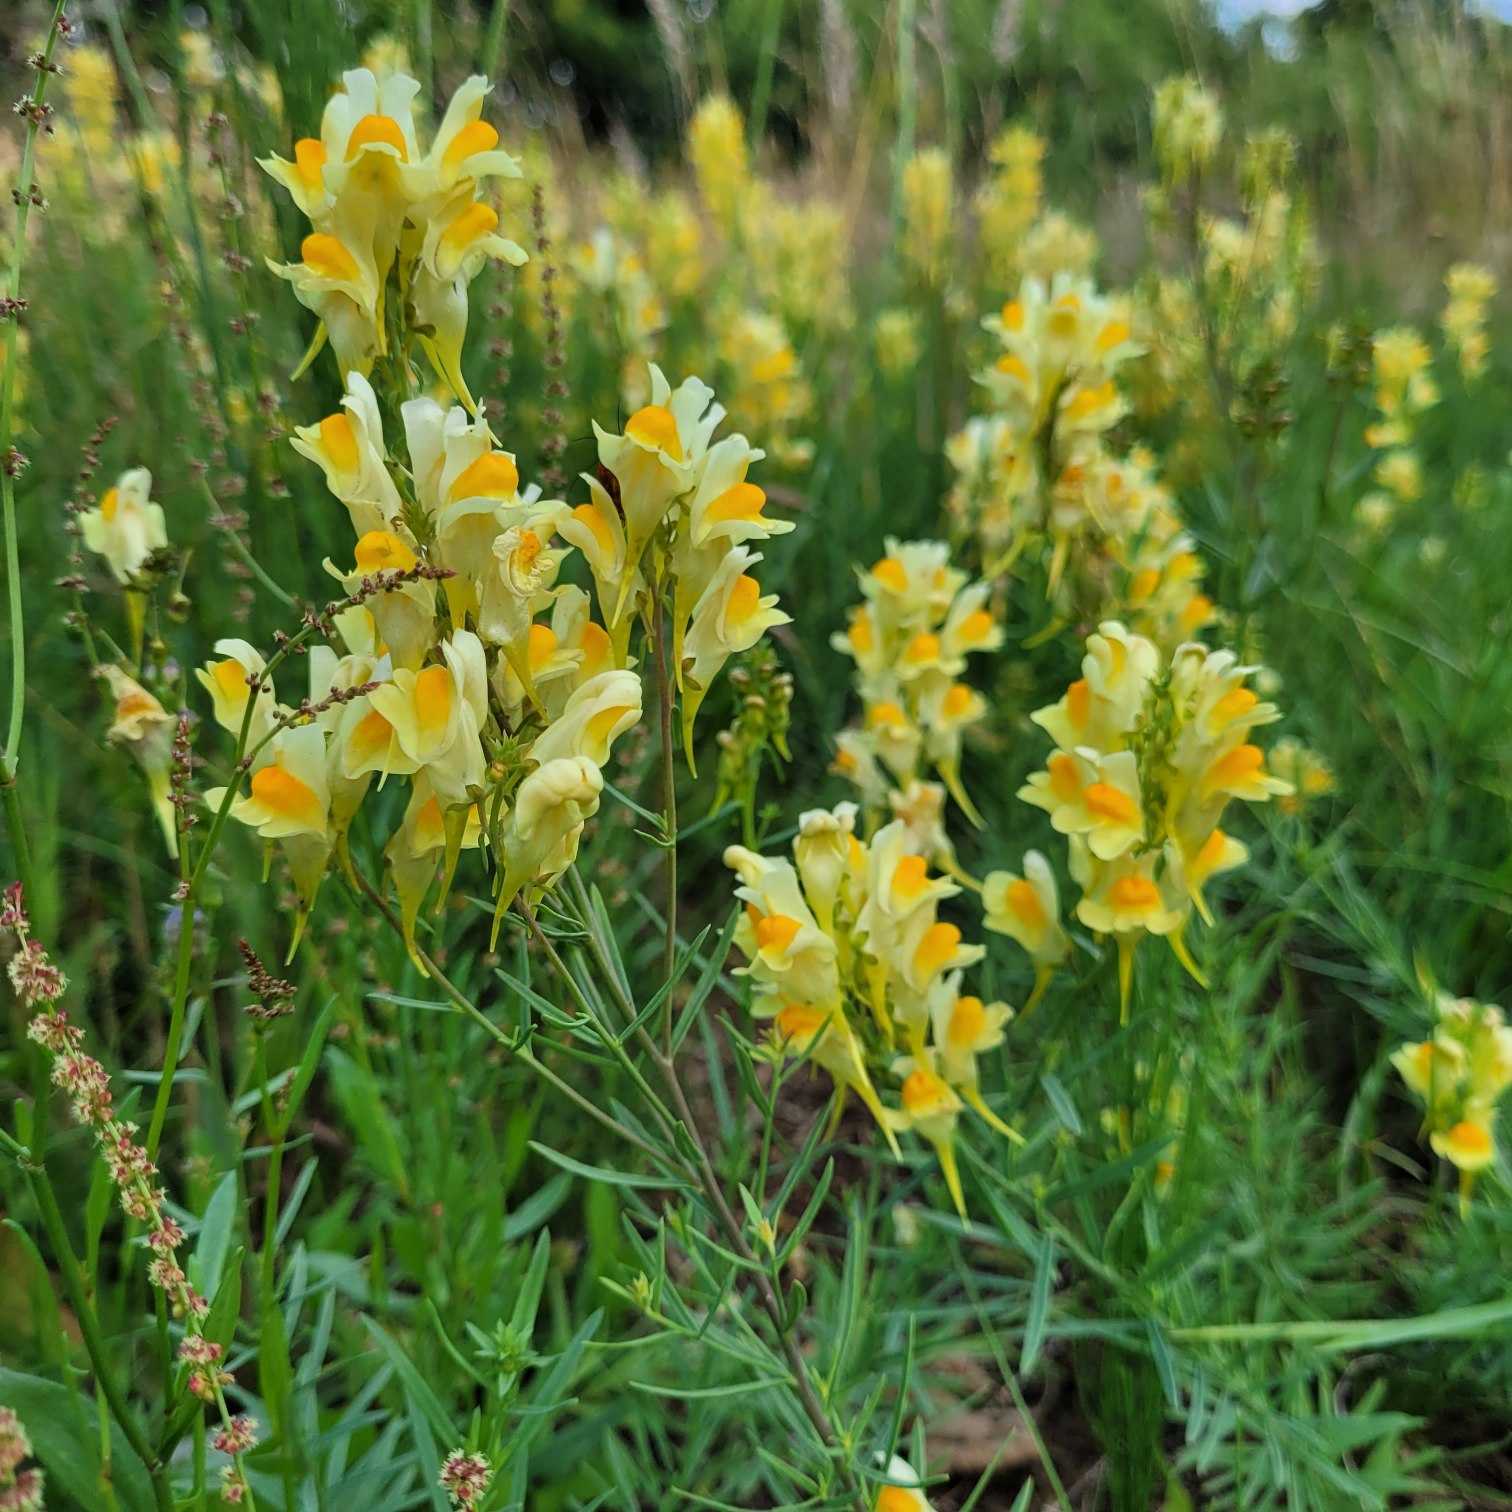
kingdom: Plantae
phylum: Tracheophyta
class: Magnoliopsida
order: Lamiales
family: Plantaginaceae
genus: Linaria
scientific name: Linaria vulgaris
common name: Almindelig torskemund
